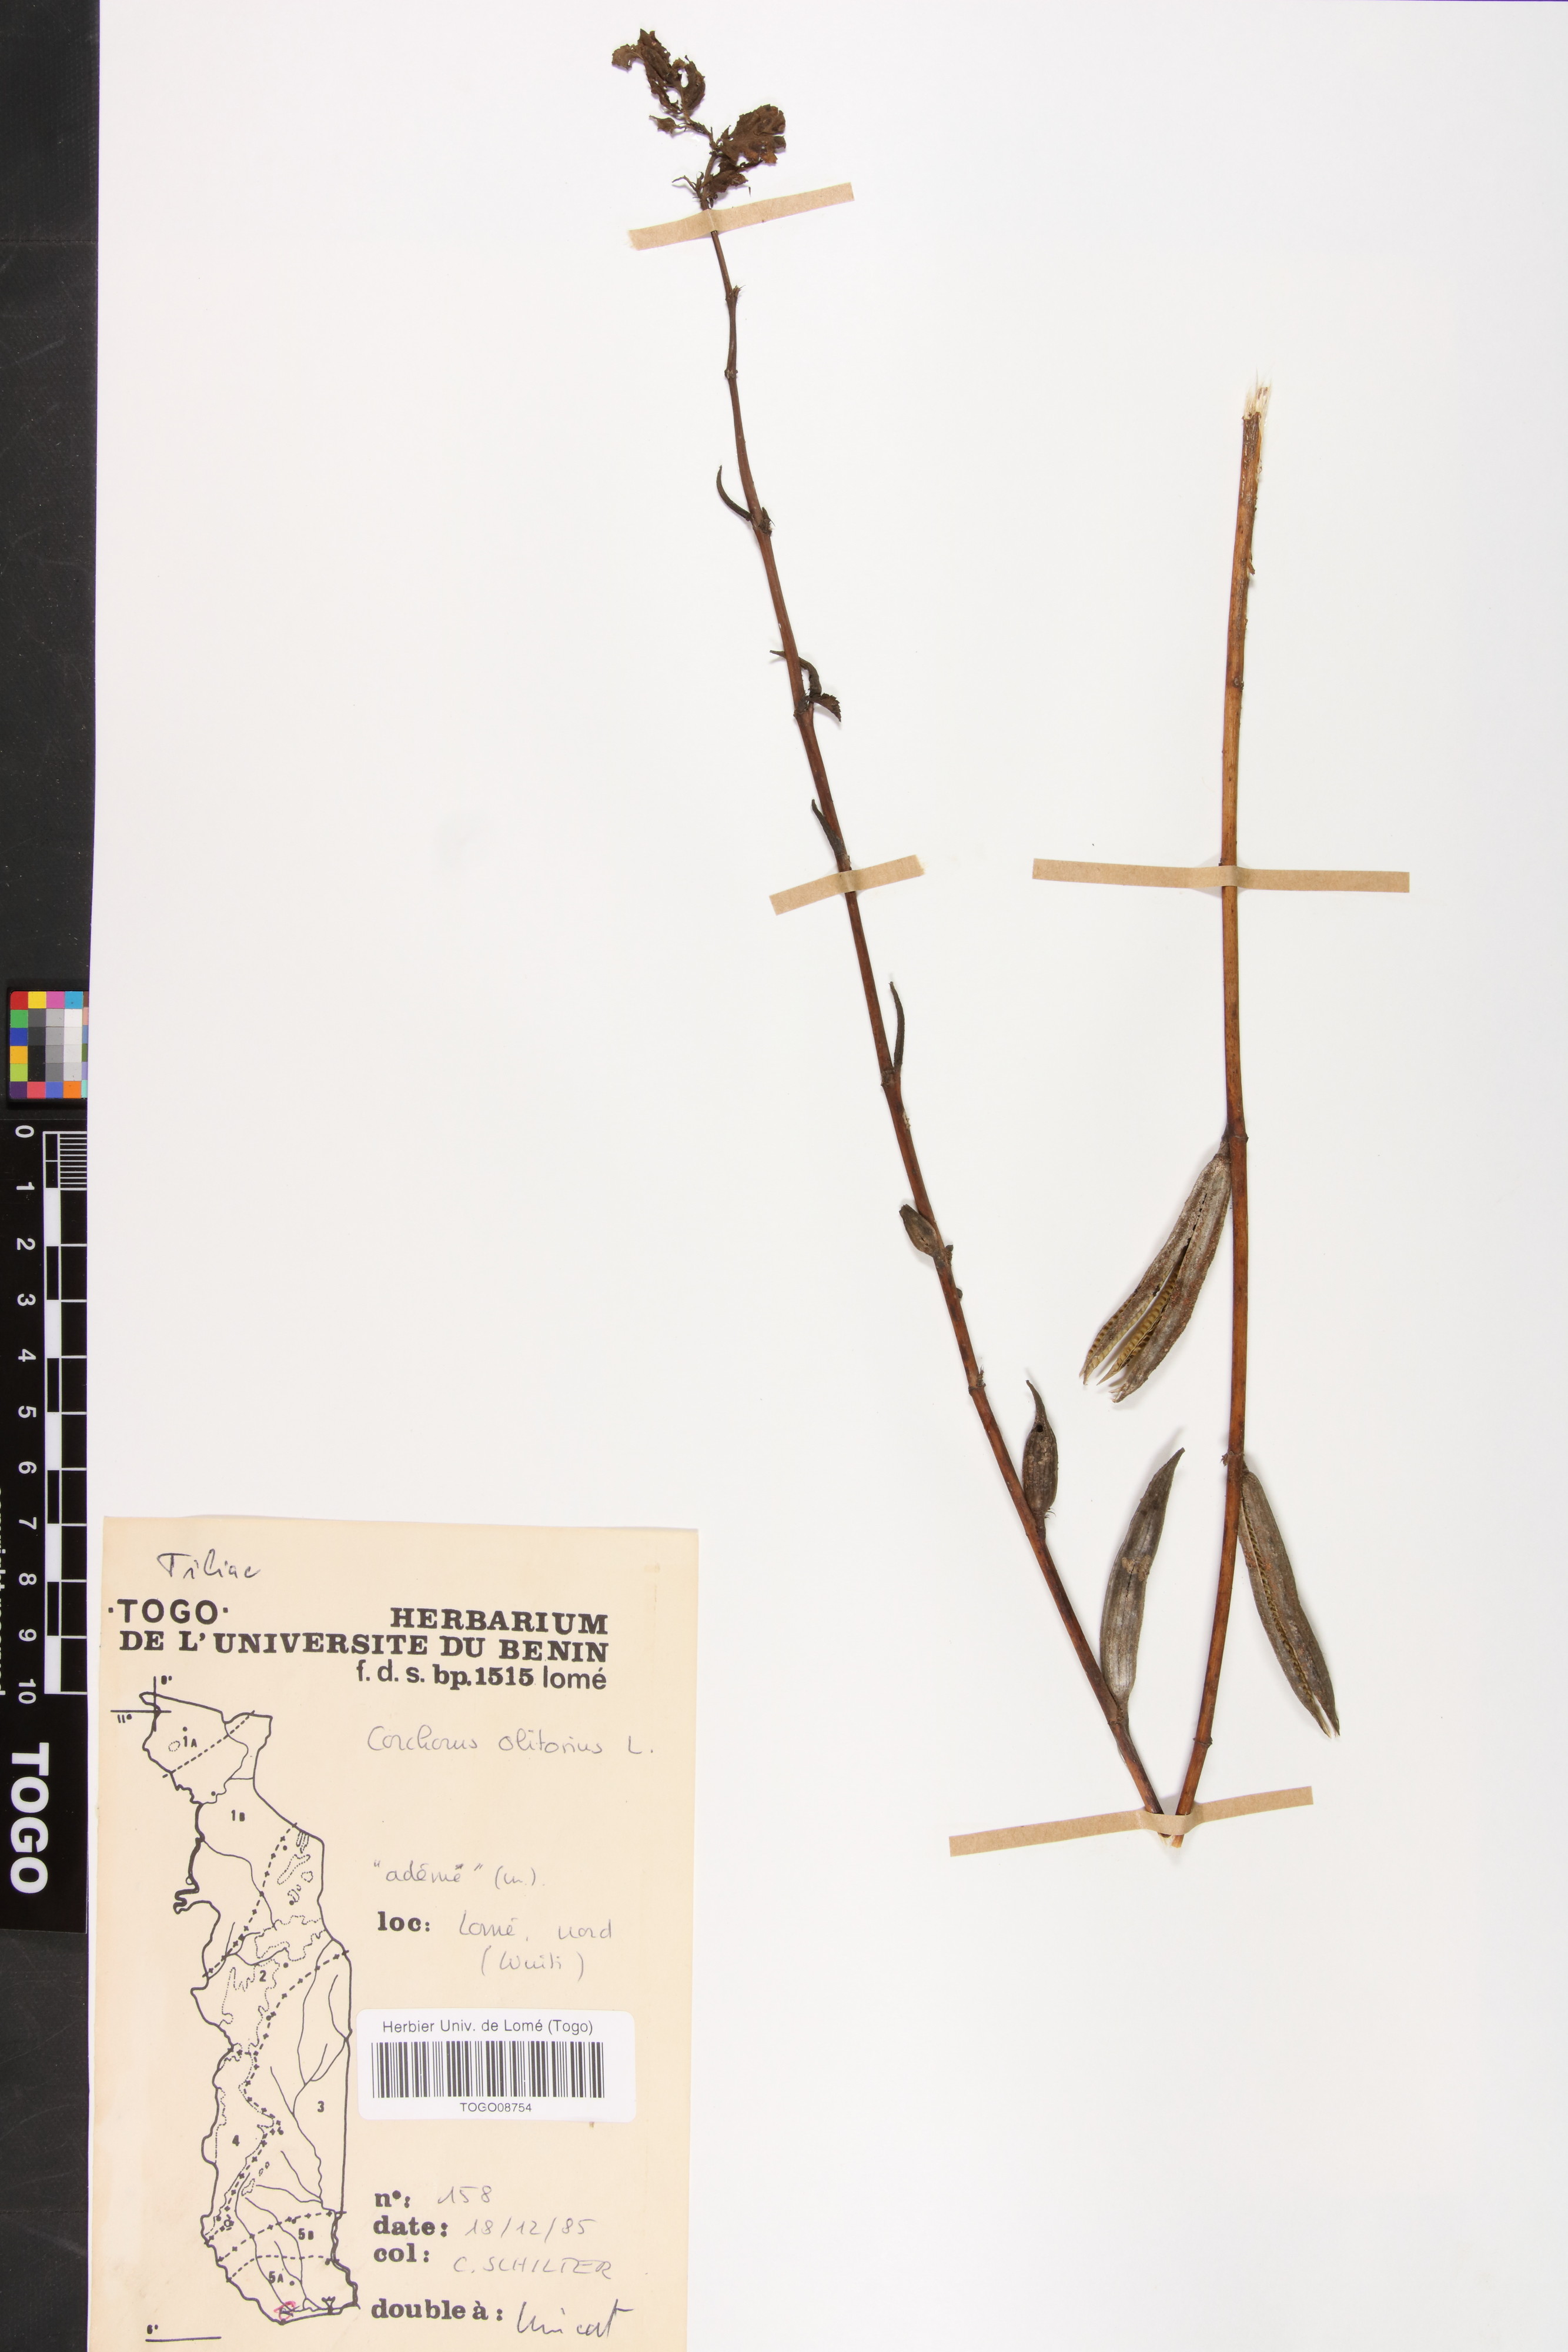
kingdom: Plantae
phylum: Tracheophyta
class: Magnoliopsida
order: Malvales
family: Malvaceae
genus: Corchorus
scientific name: Corchorus aestuans
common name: Jute
